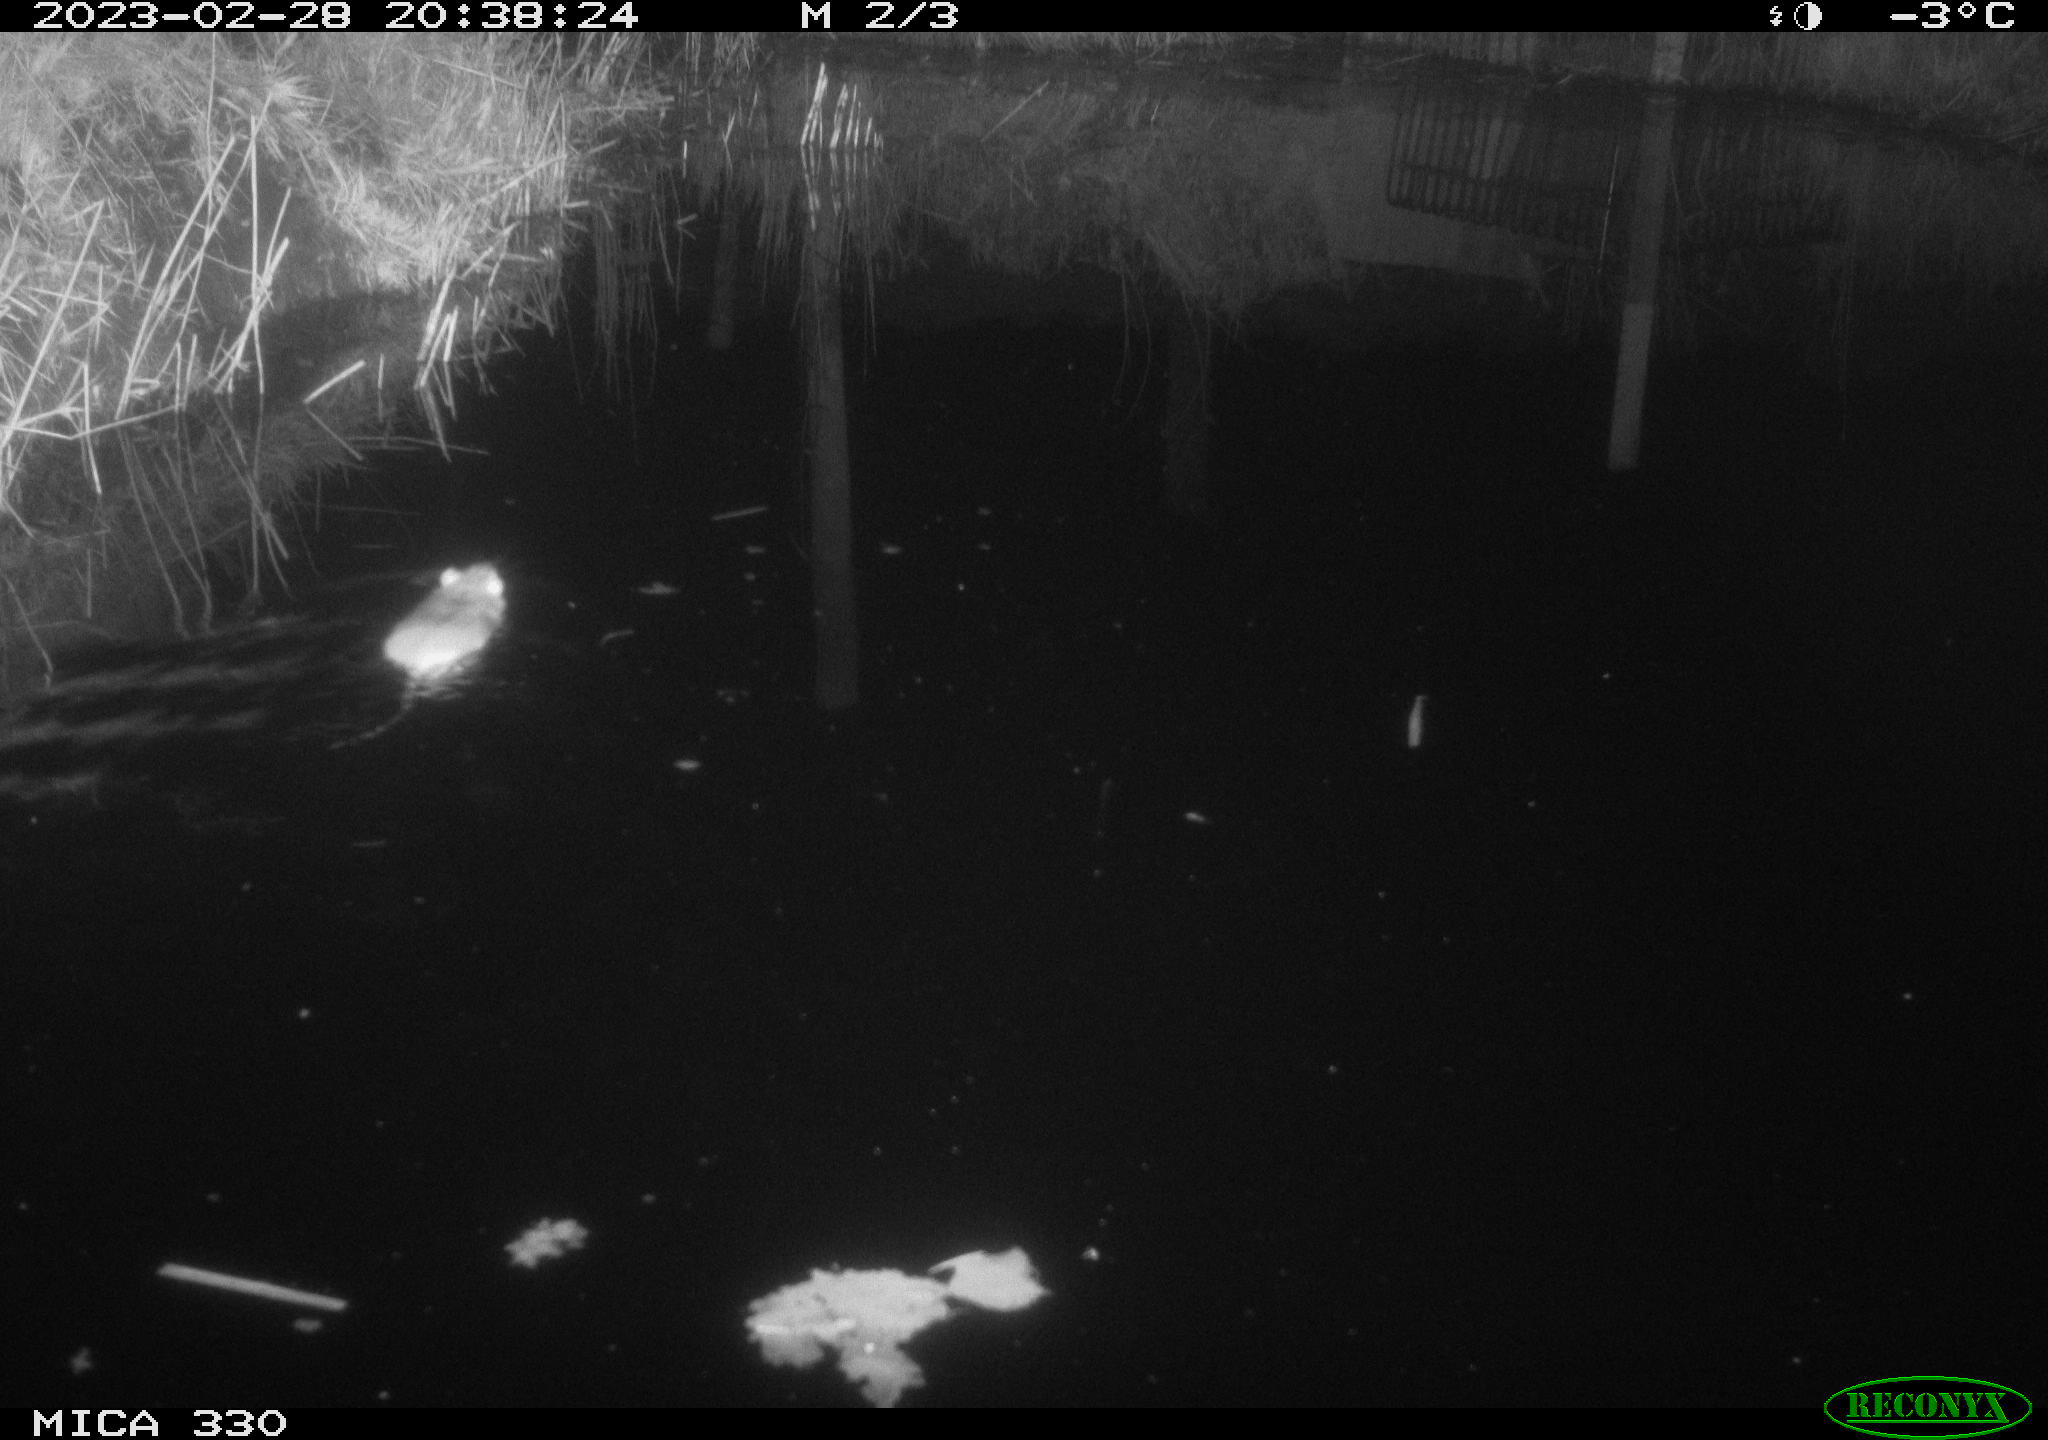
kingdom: Animalia
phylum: Chordata
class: Mammalia
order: Rodentia
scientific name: Rodentia
